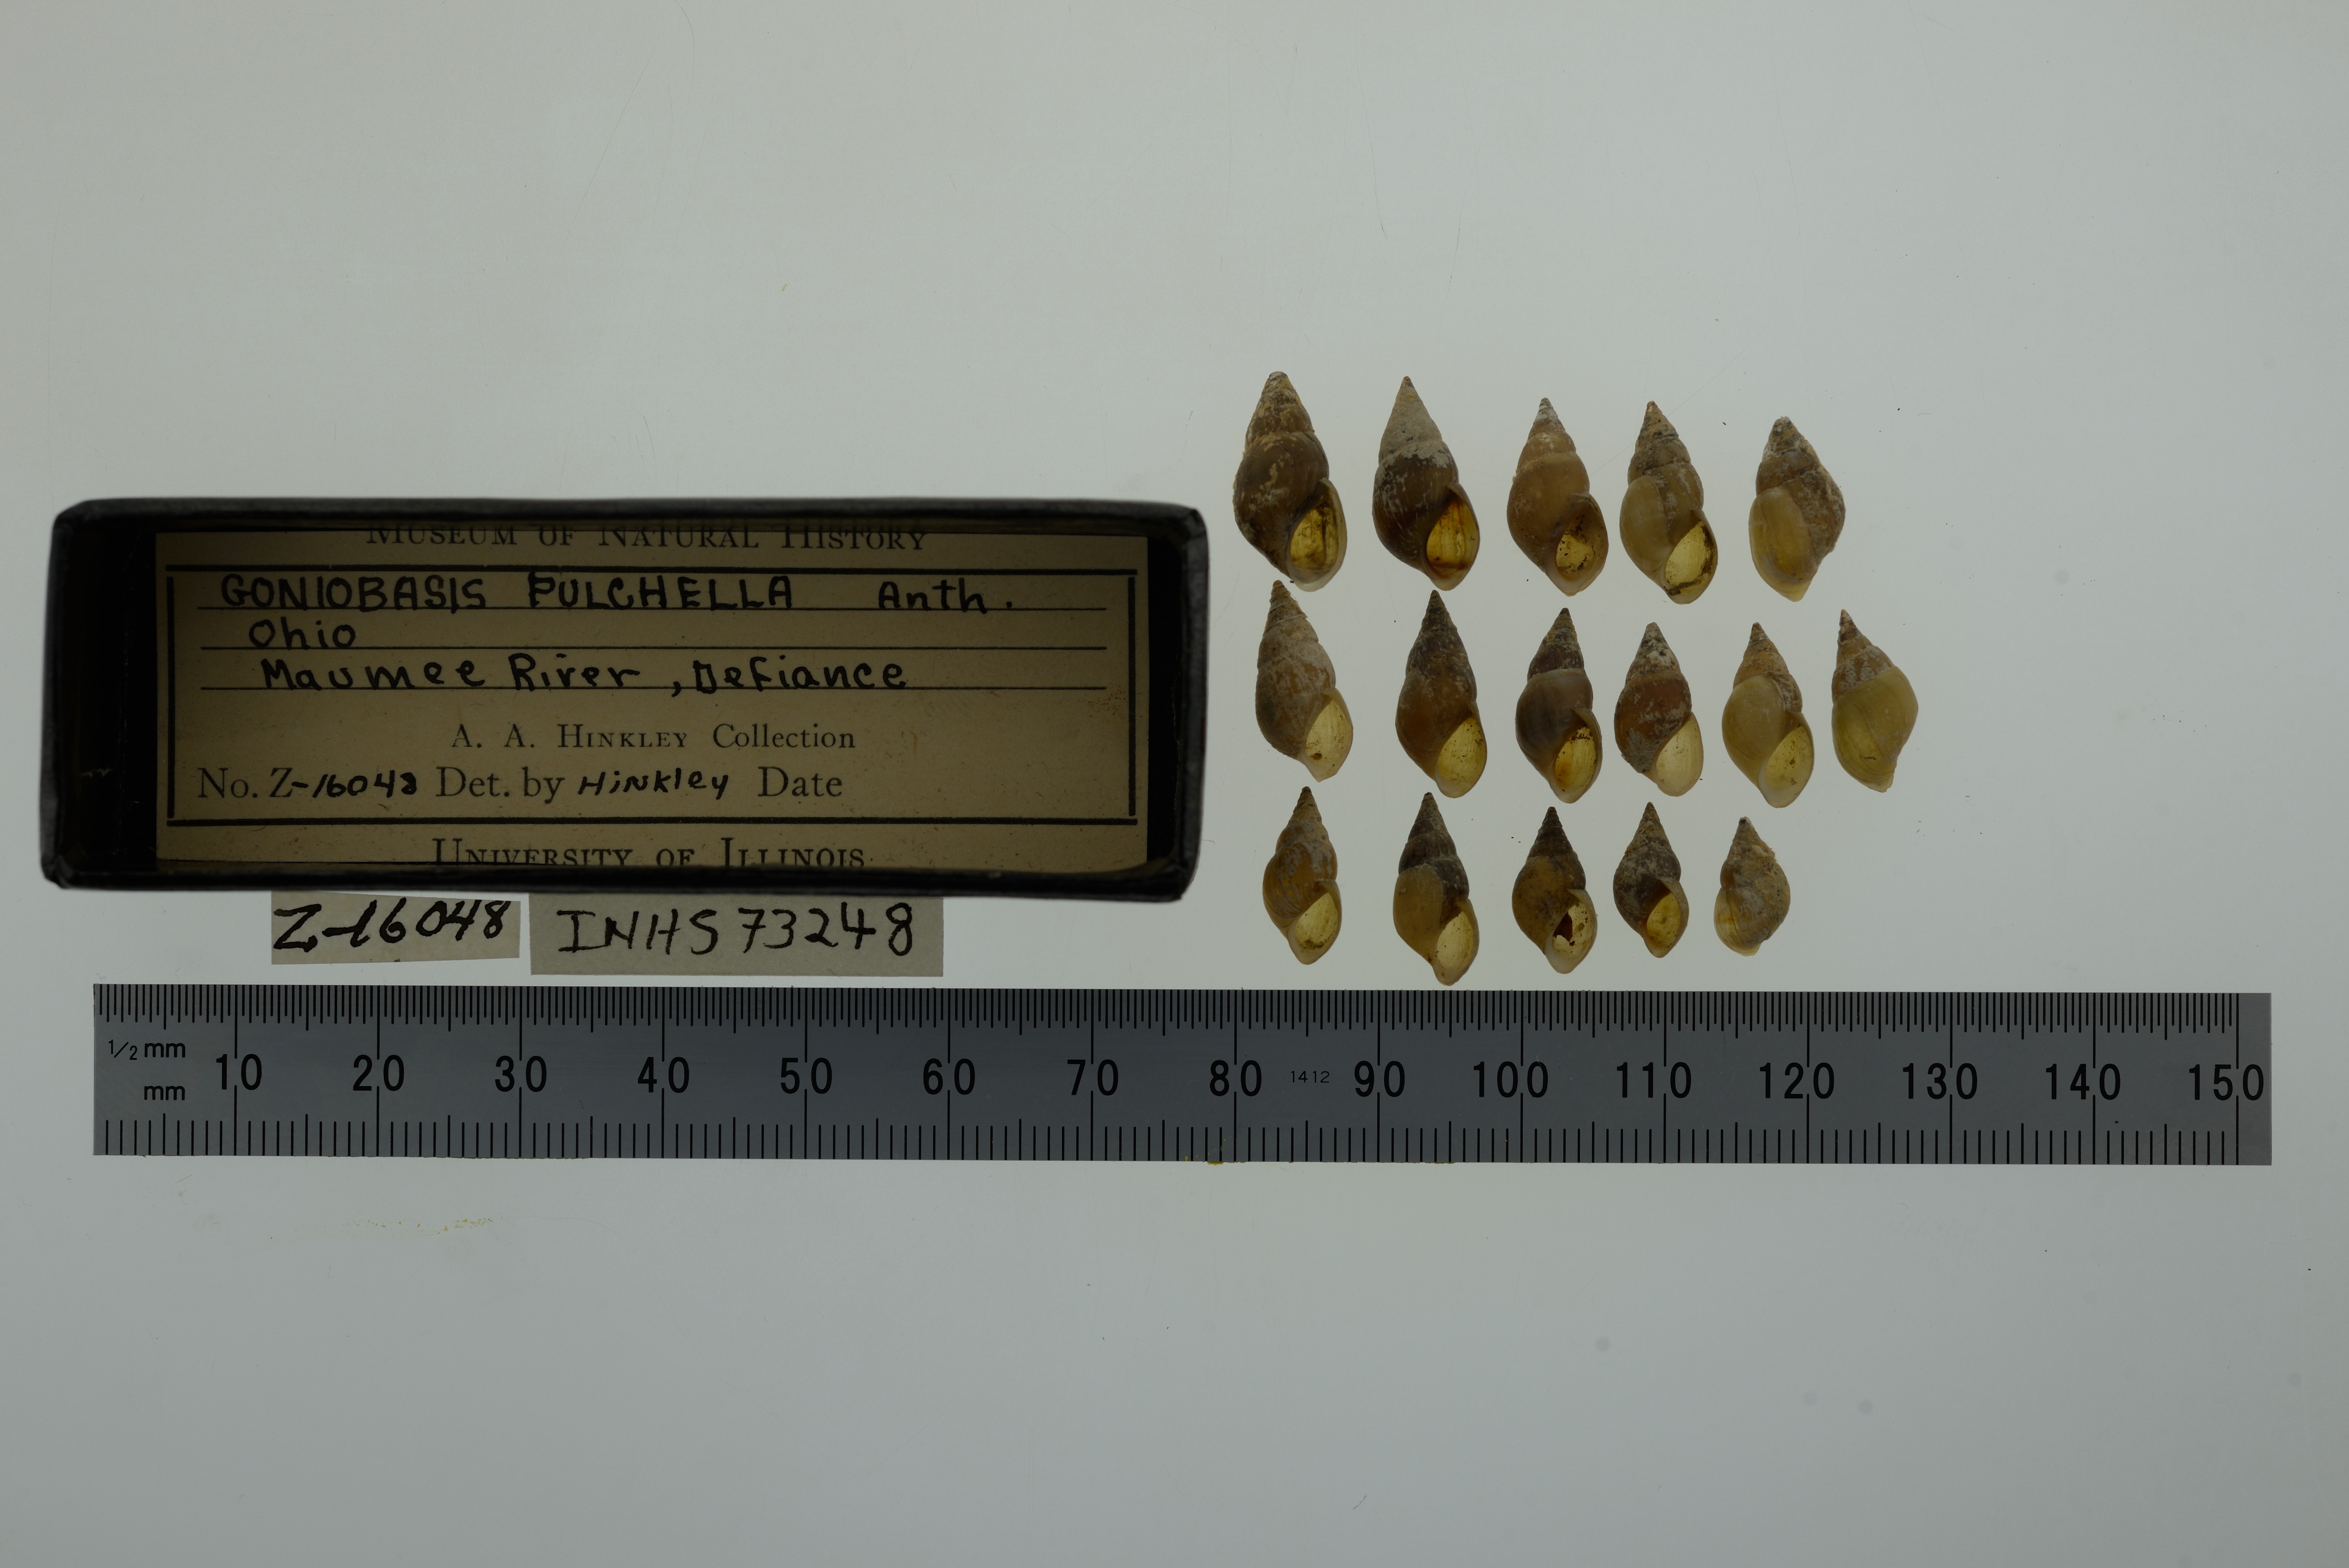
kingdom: Animalia
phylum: Mollusca
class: Gastropoda
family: Pleuroceridae
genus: Elimia
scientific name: Elimia semicarinata
